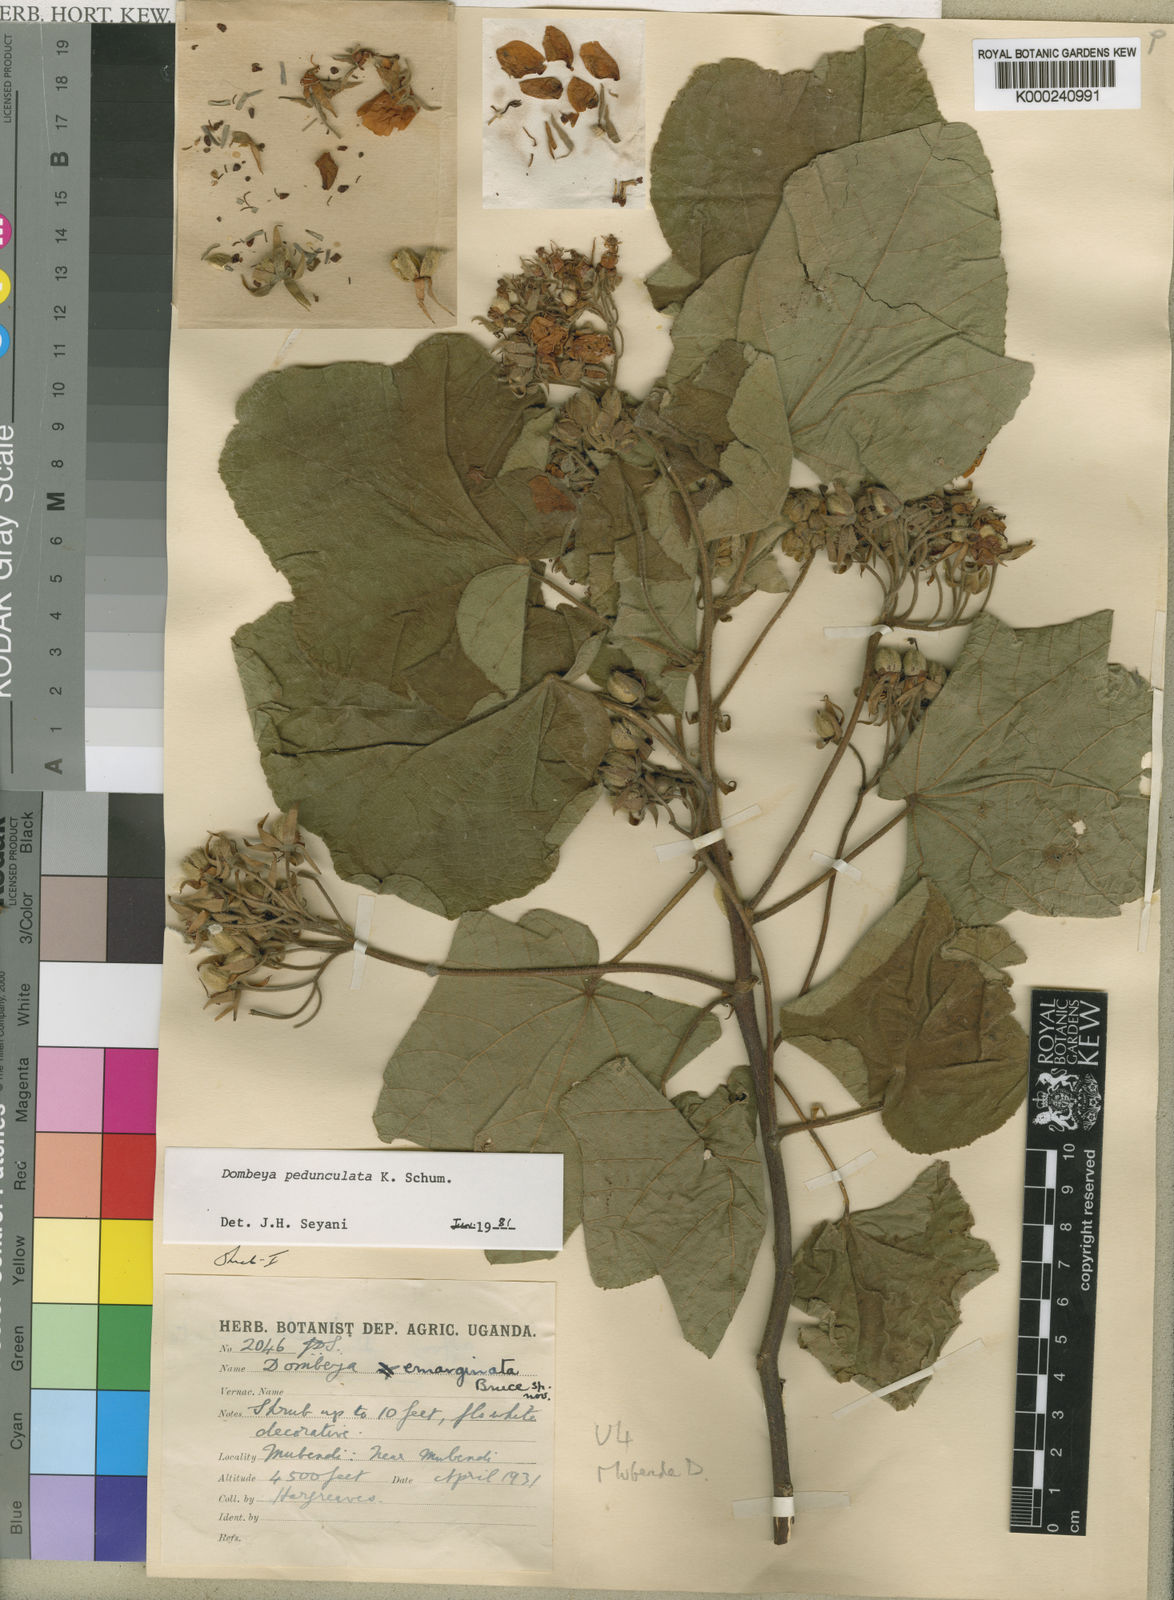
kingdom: Plantae
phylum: Tracheophyta
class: Magnoliopsida
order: Malvales
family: Malvaceae
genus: Dombeya
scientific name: Dombeya buettneri
